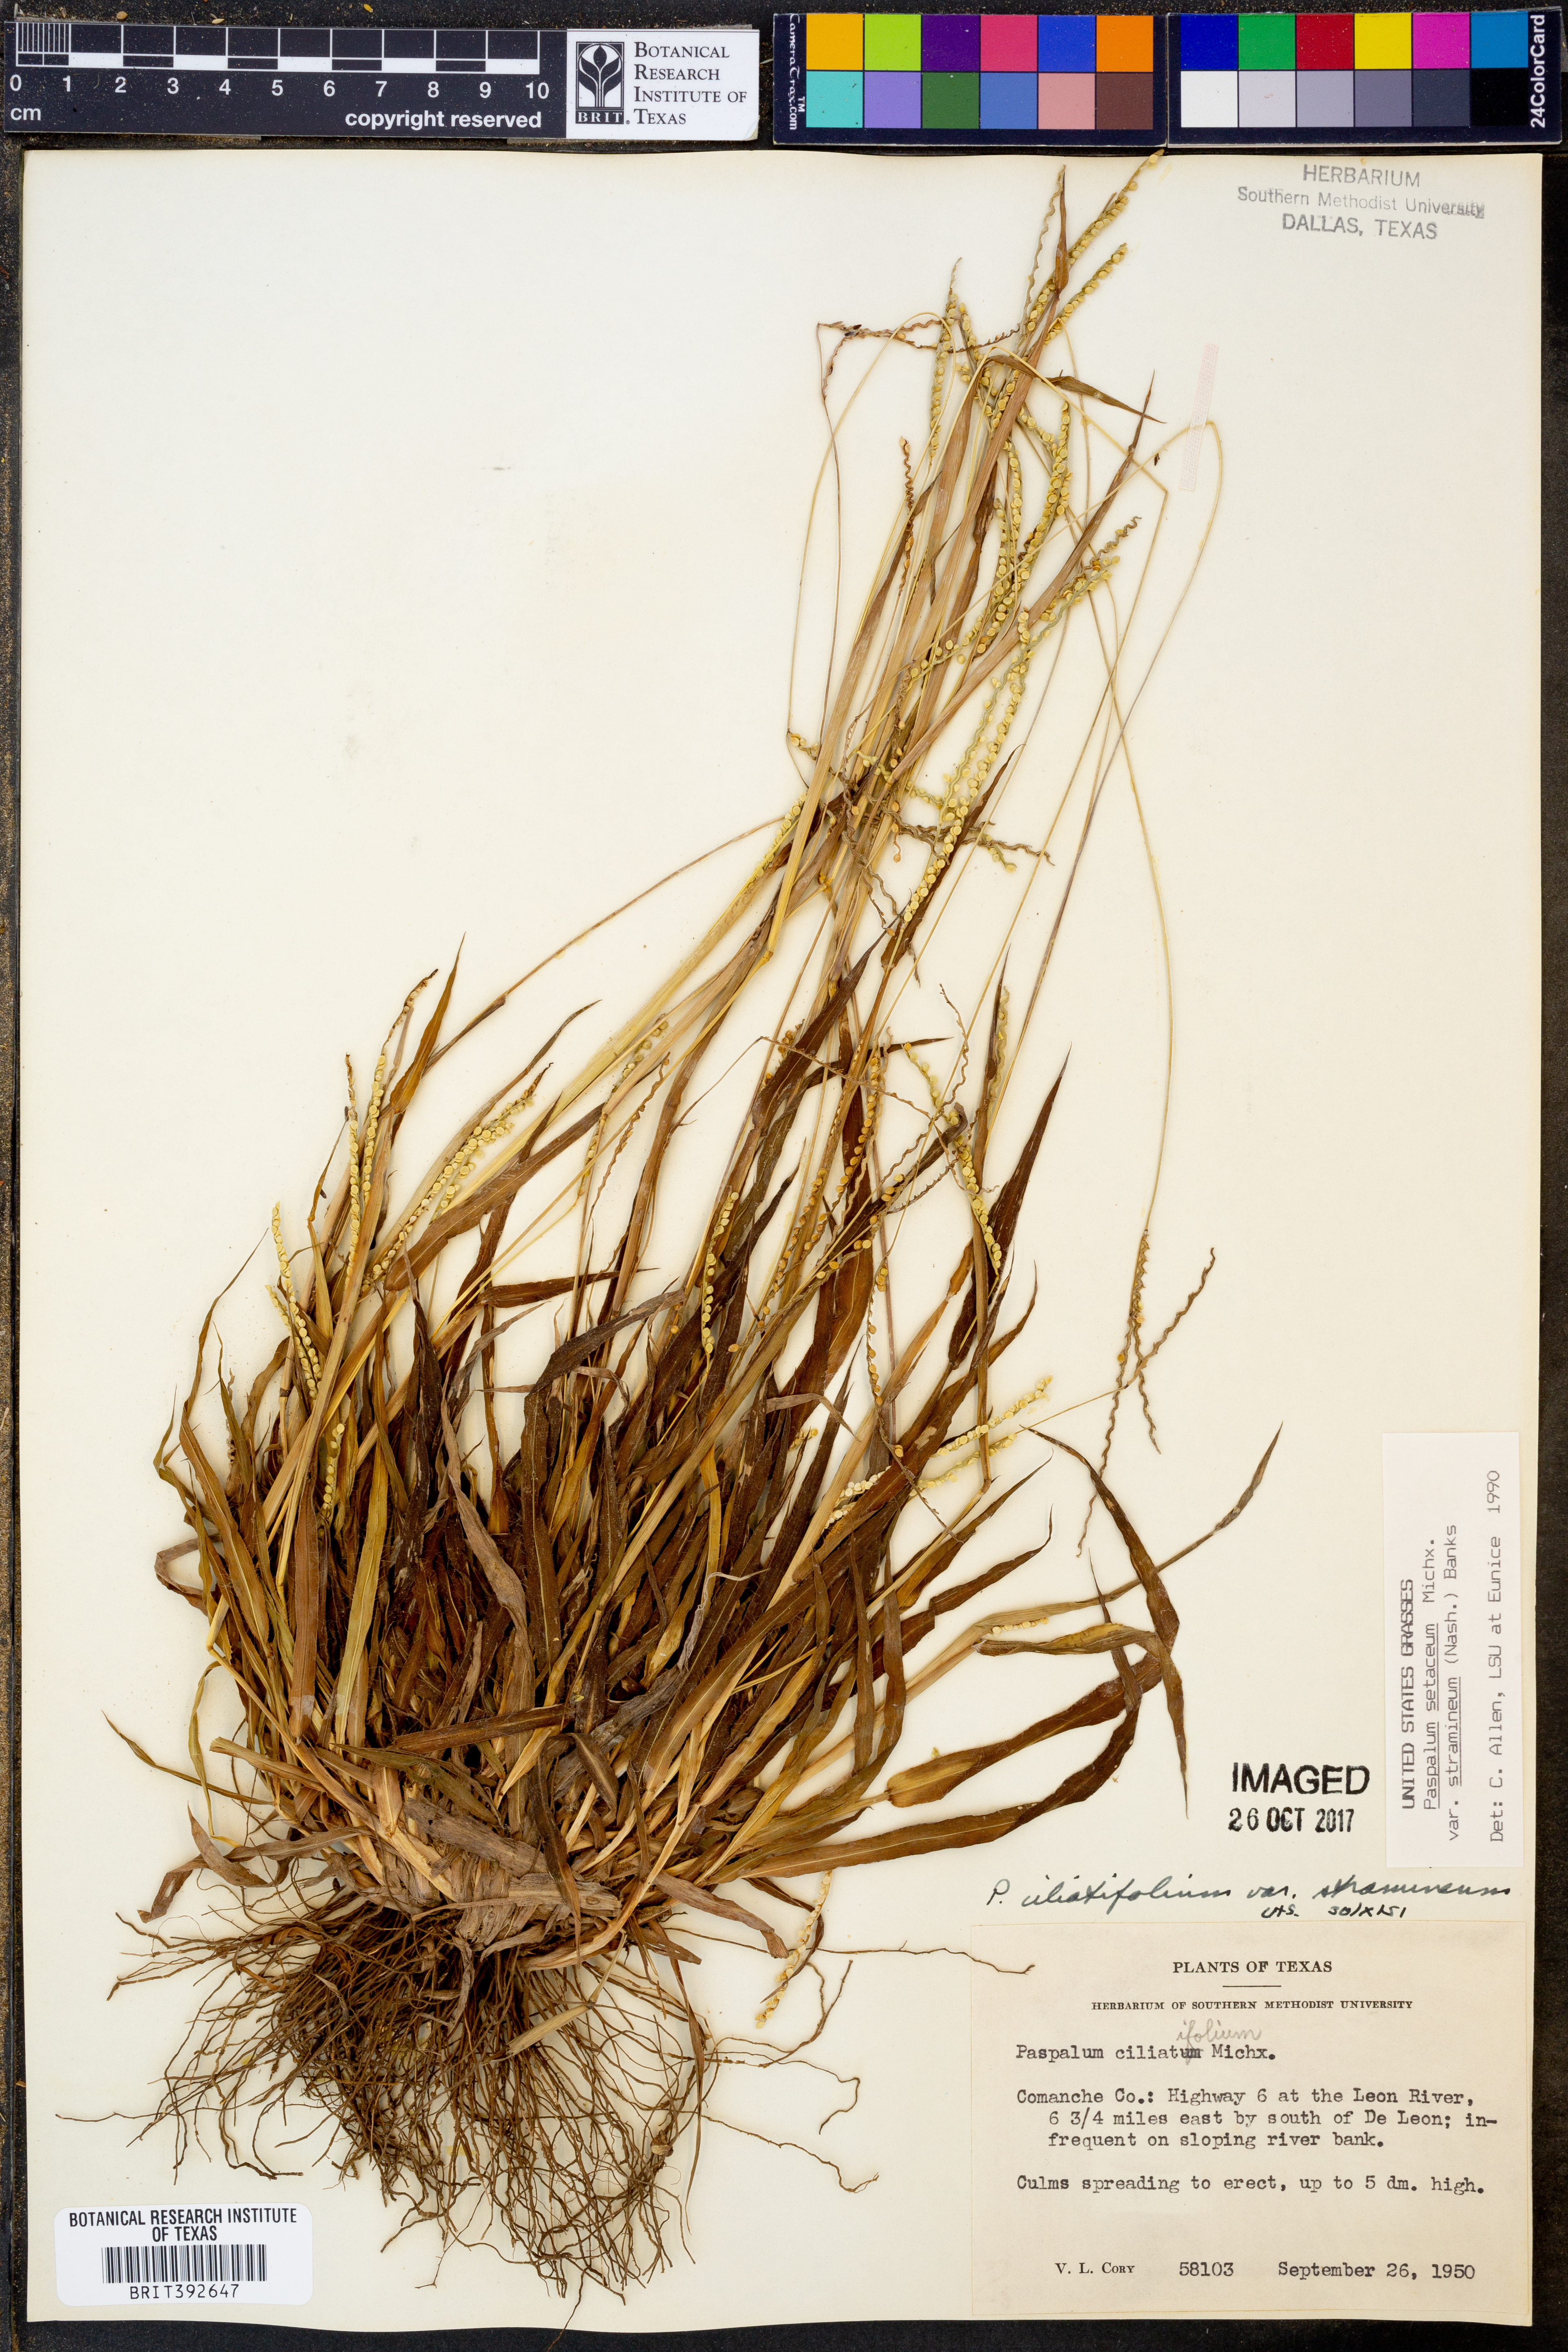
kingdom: Plantae
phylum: Tracheophyta
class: Liliopsida
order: Poales
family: Poaceae
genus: Paspalum
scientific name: Paspalum setaceum
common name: Slender paspalum
